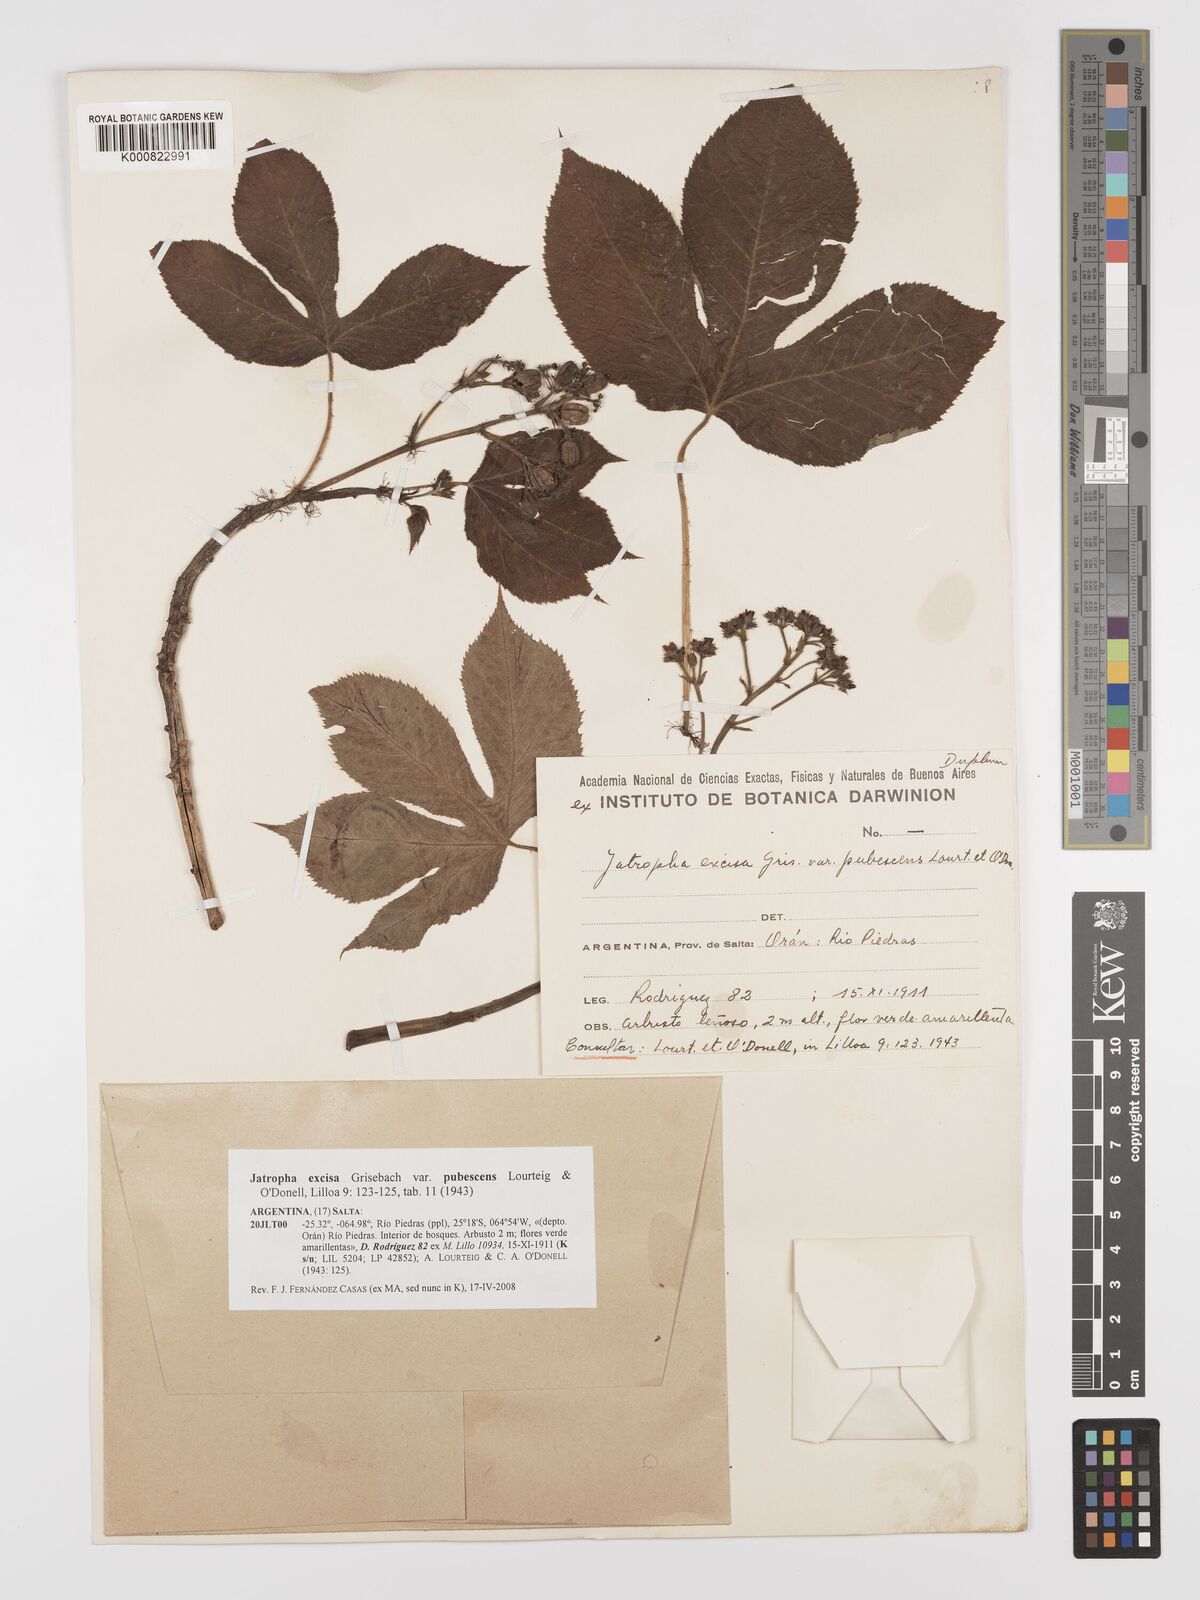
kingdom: Plantae
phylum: Tracheophyta
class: Magnoliopsida
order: Malpighiales
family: Euphorbiaceae
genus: Jatropha
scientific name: Jatropha excisa
